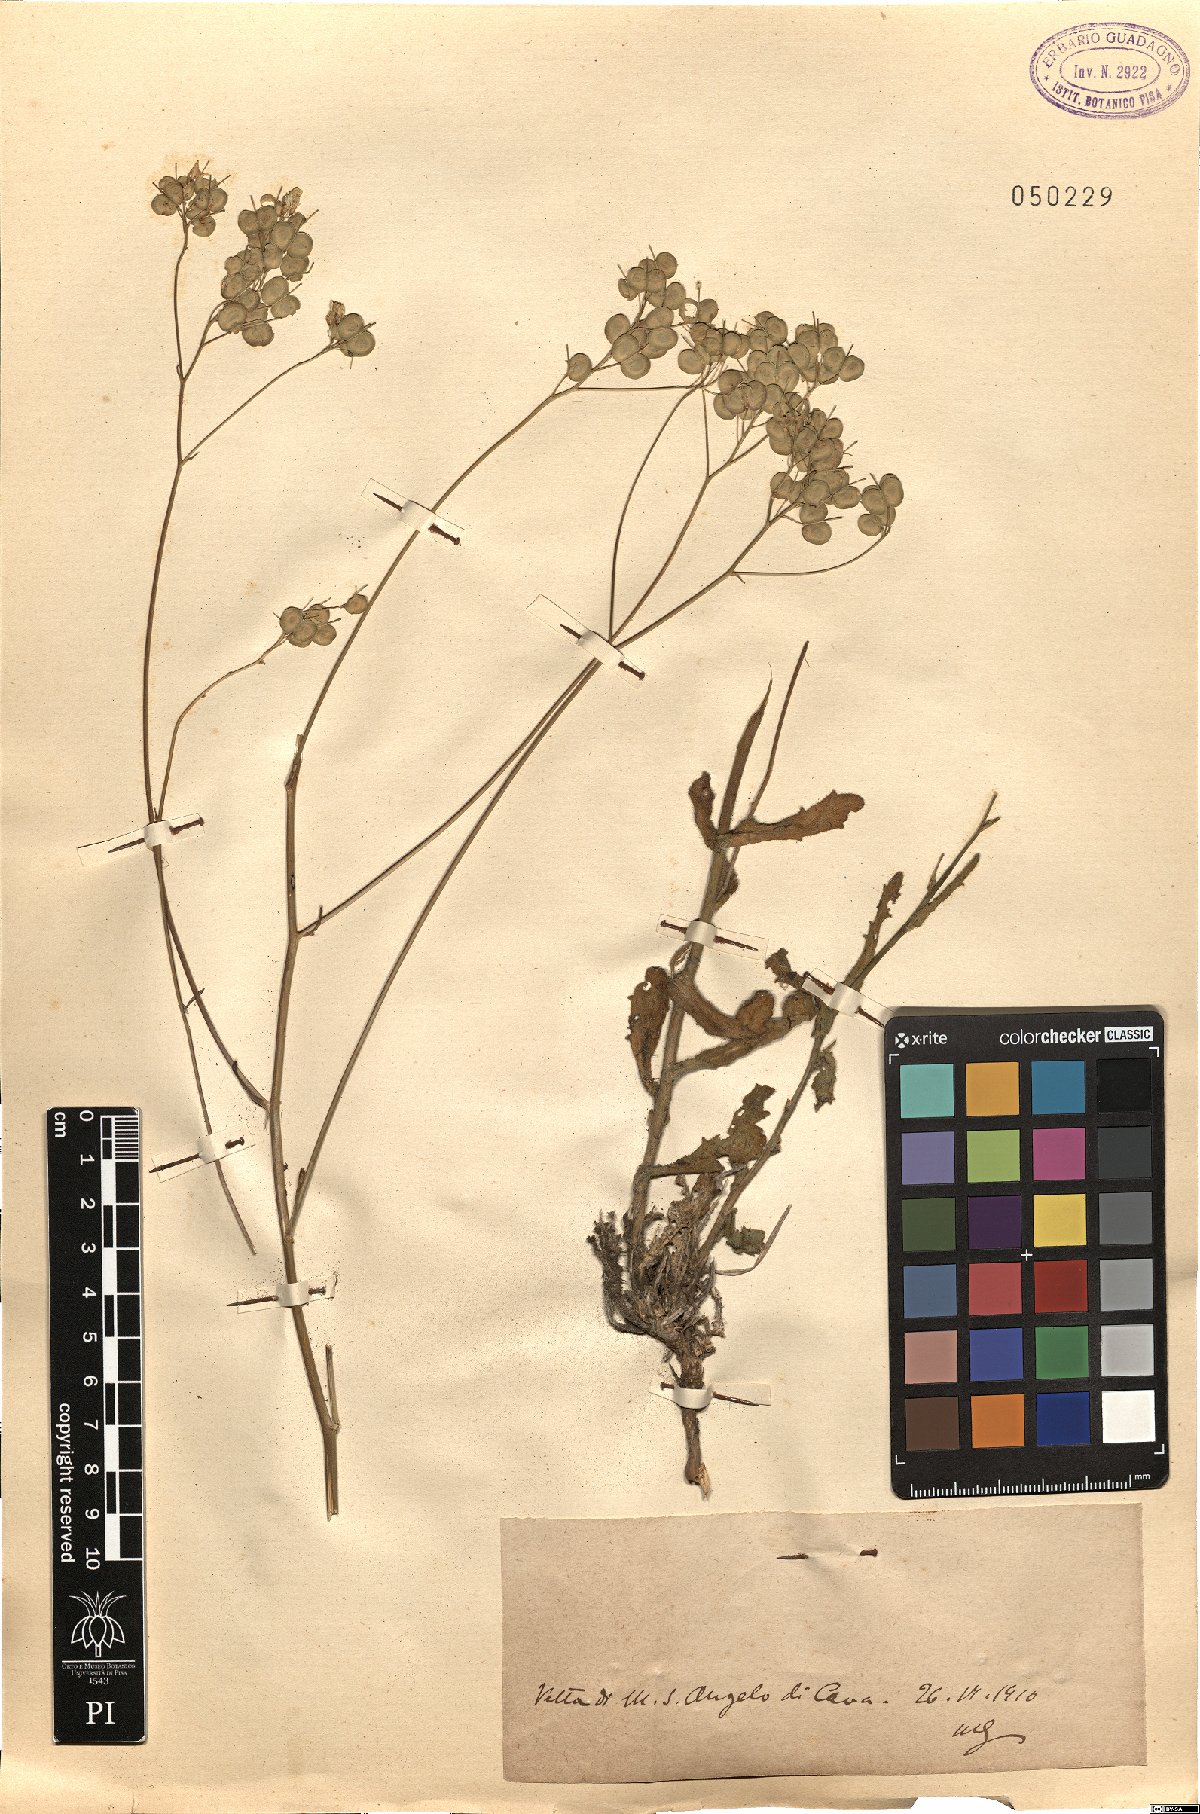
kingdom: Plantae
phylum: Tracheophyta
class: Magnoliopsida
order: Brassicales
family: Brassicaceae
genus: Biscutella
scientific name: Biscutella
